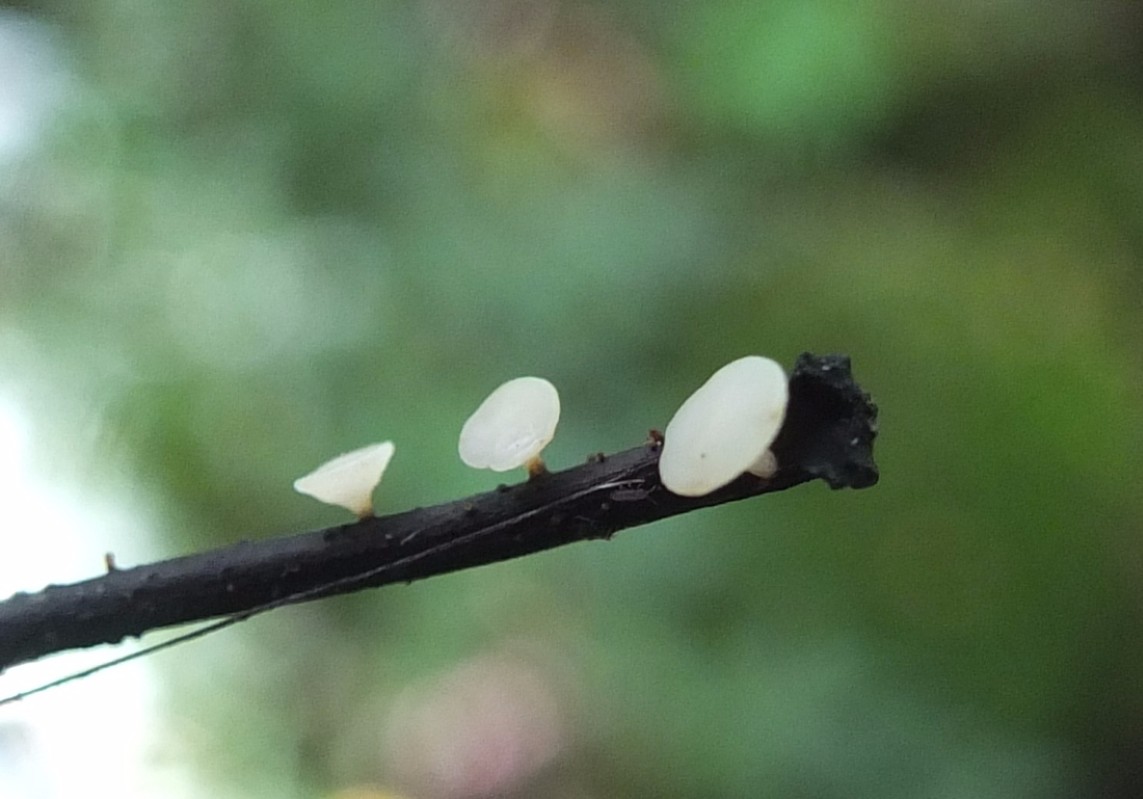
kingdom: Fungi
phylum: Ascomycota
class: Leotiomycetes
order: Helotiales
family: Helotiaceae
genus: Hymenoscyphus
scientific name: Hymenoscyphus fraxineus
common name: asketoptørre-stilkskive
